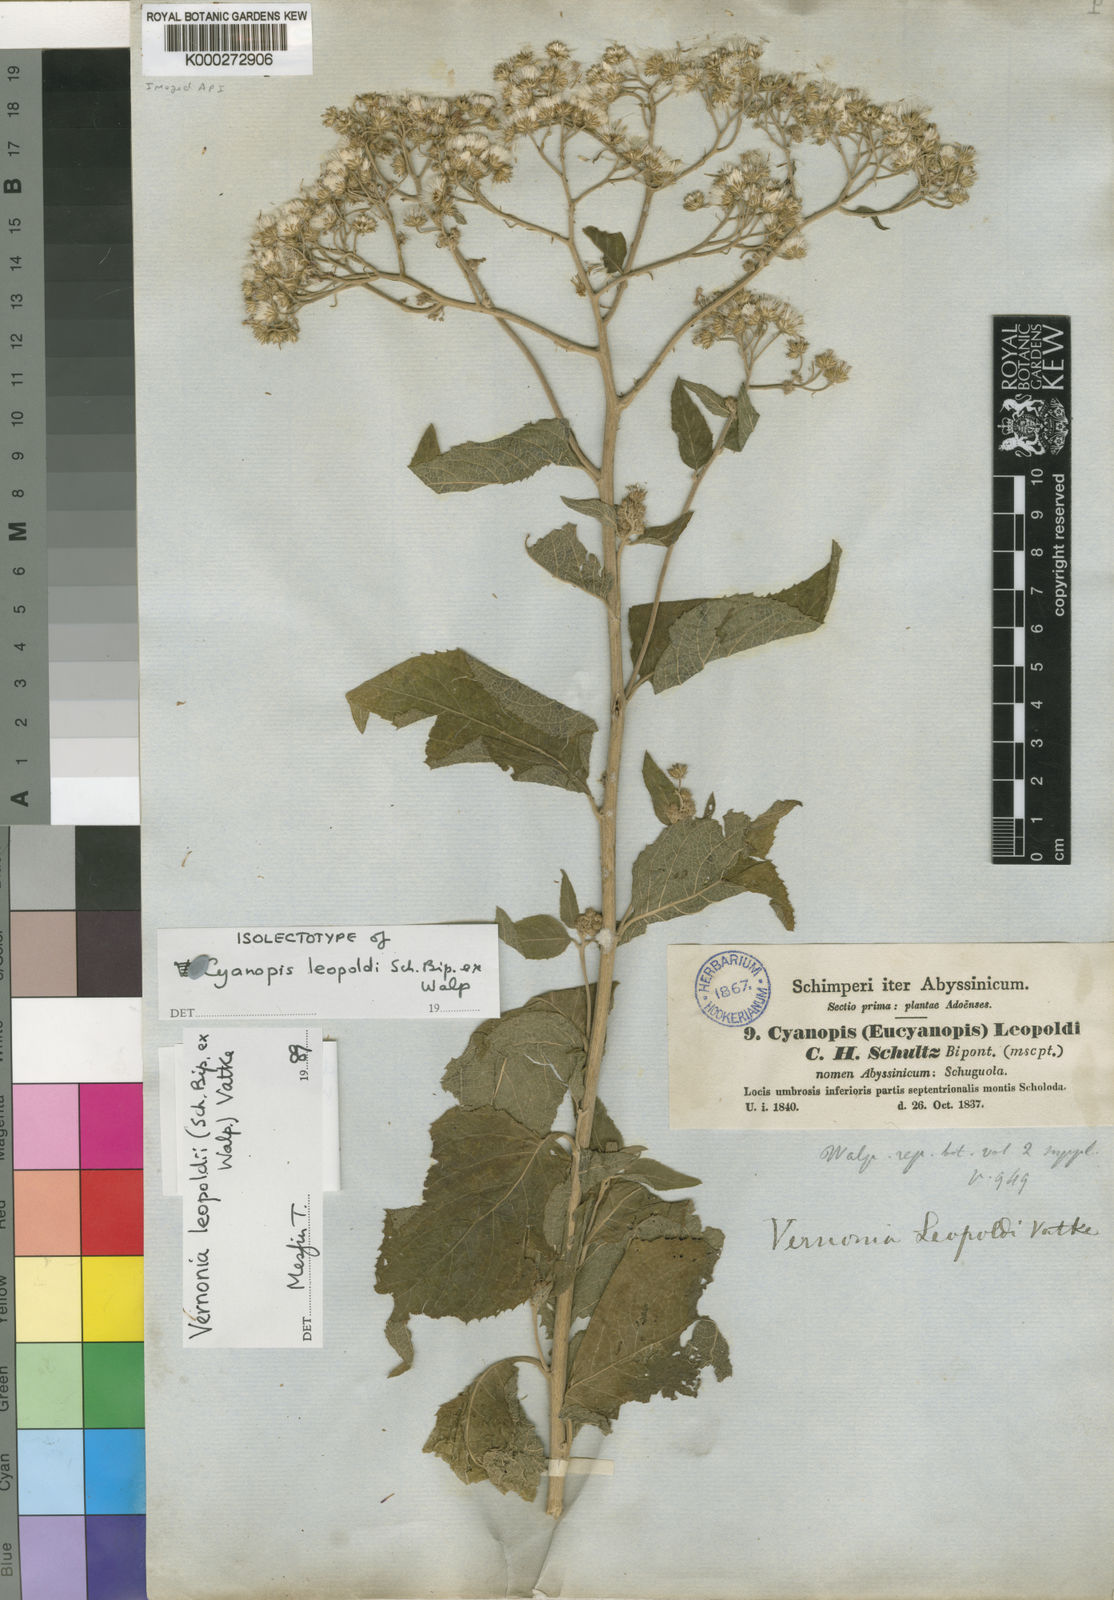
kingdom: Plantae
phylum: Tracheophyta
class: Magnoliopsida
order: Asterales
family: Asteraceae
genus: Orbivestus
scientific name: Orbivestus leopoldii
